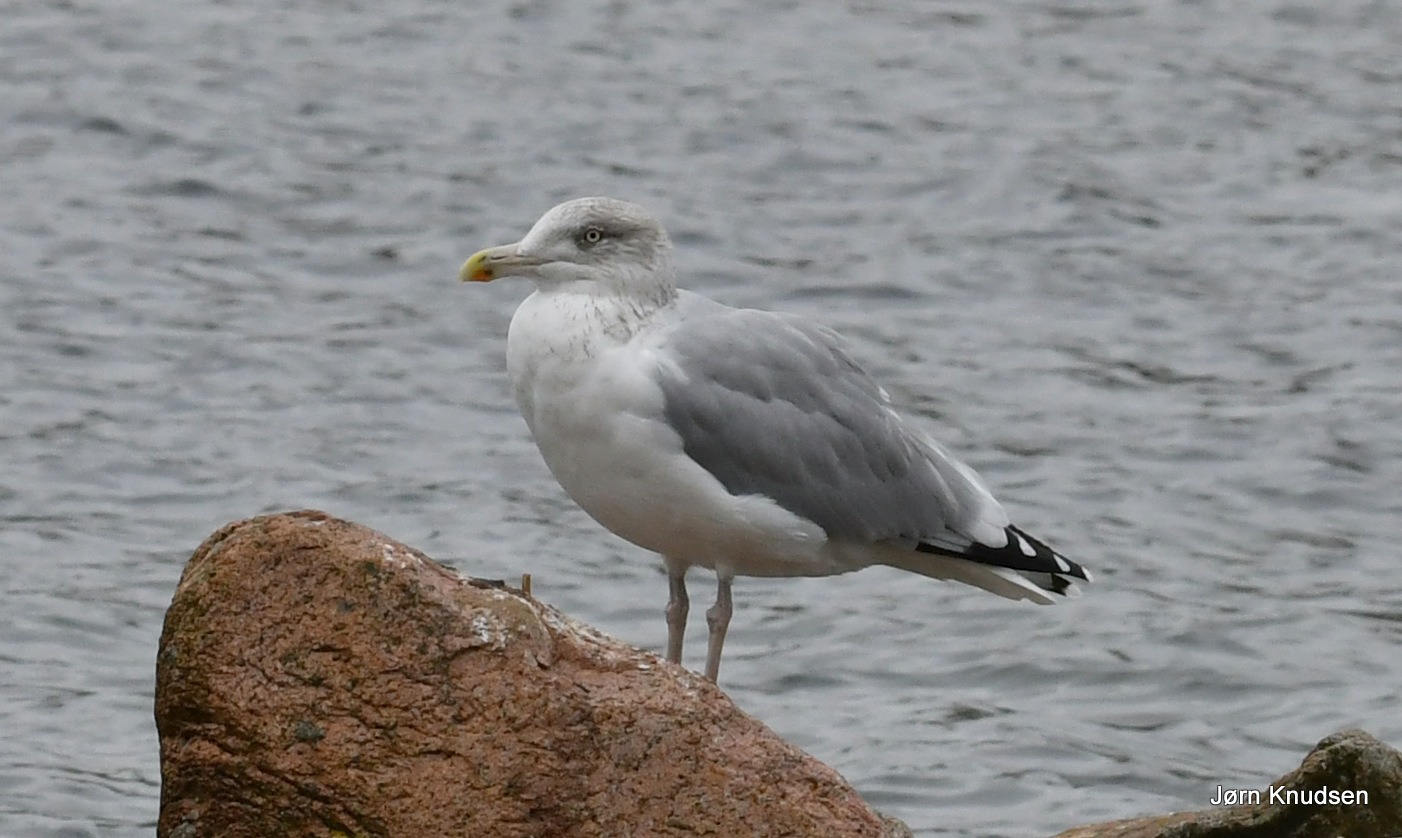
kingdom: Animalia
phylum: Chordata
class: Aves
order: Charadriiformes
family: Laridae
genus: Larus
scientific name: Larus argentatus
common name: Sølvmåge
